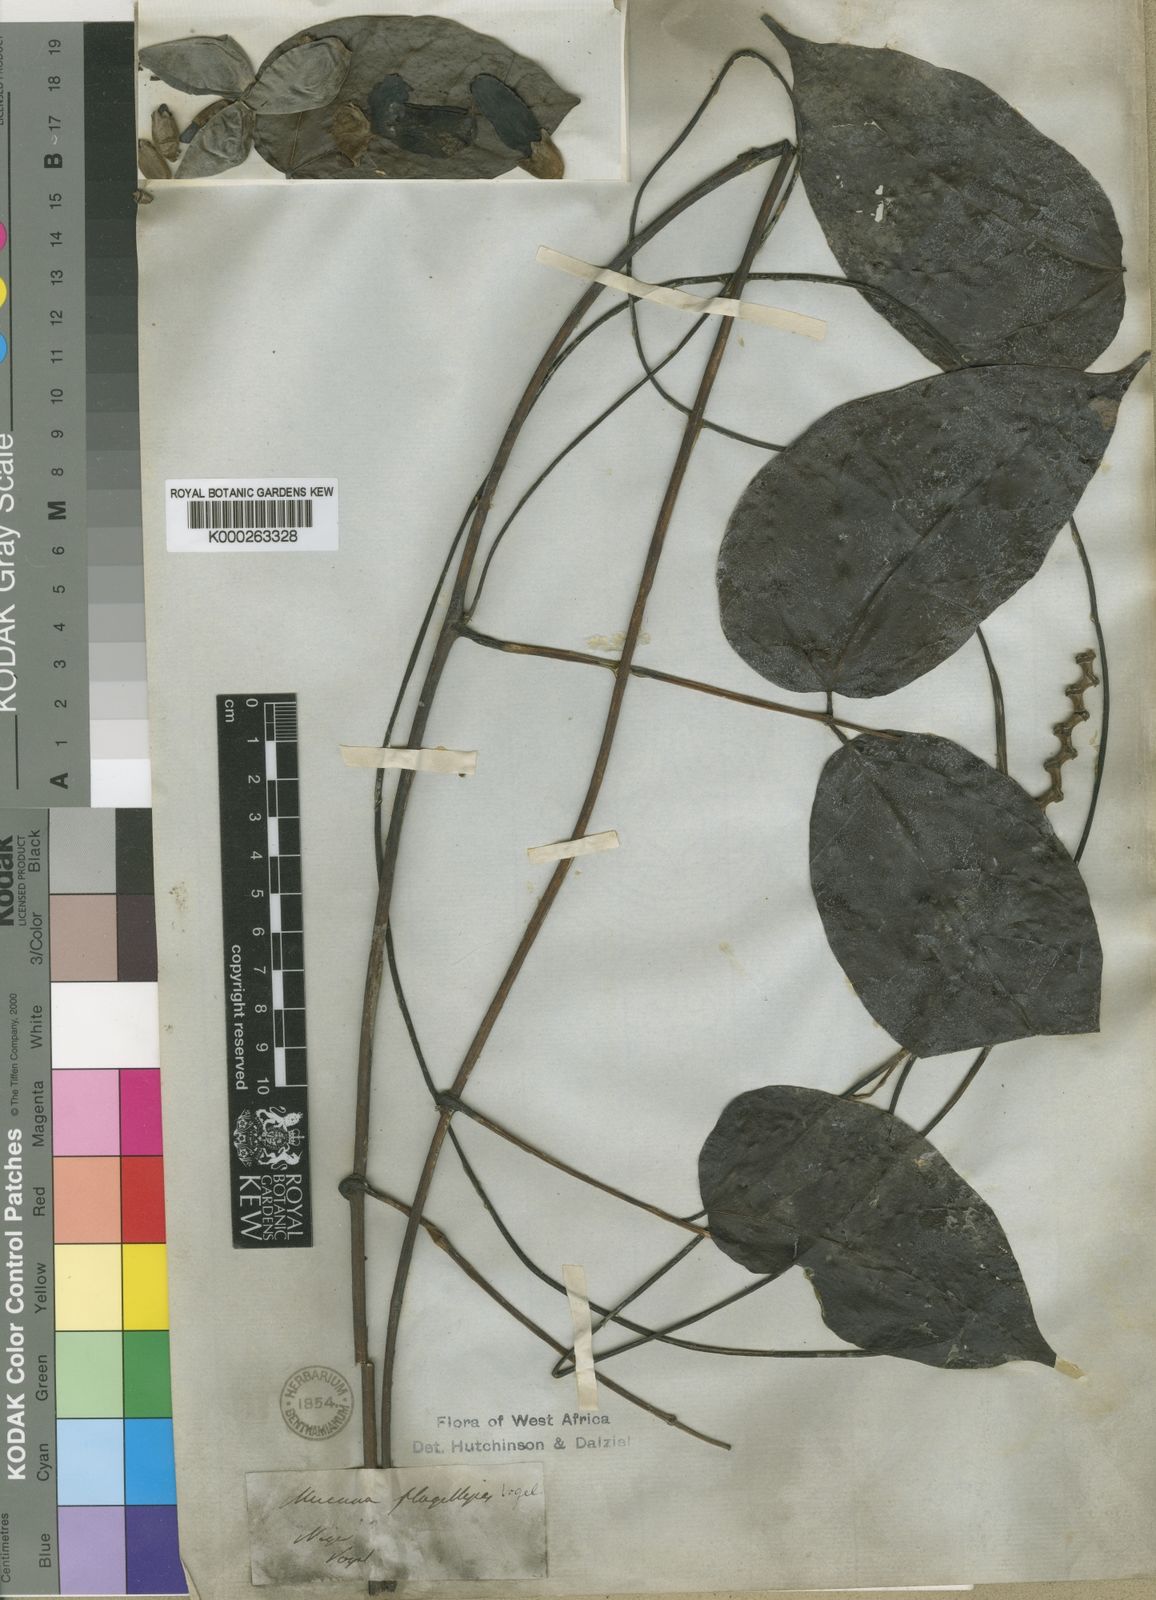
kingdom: Plantae
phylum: Tracheophyta
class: Magnoliopsida
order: Fabales
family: Fabaceae
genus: Mucuna
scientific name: Mucuna flagellipes
